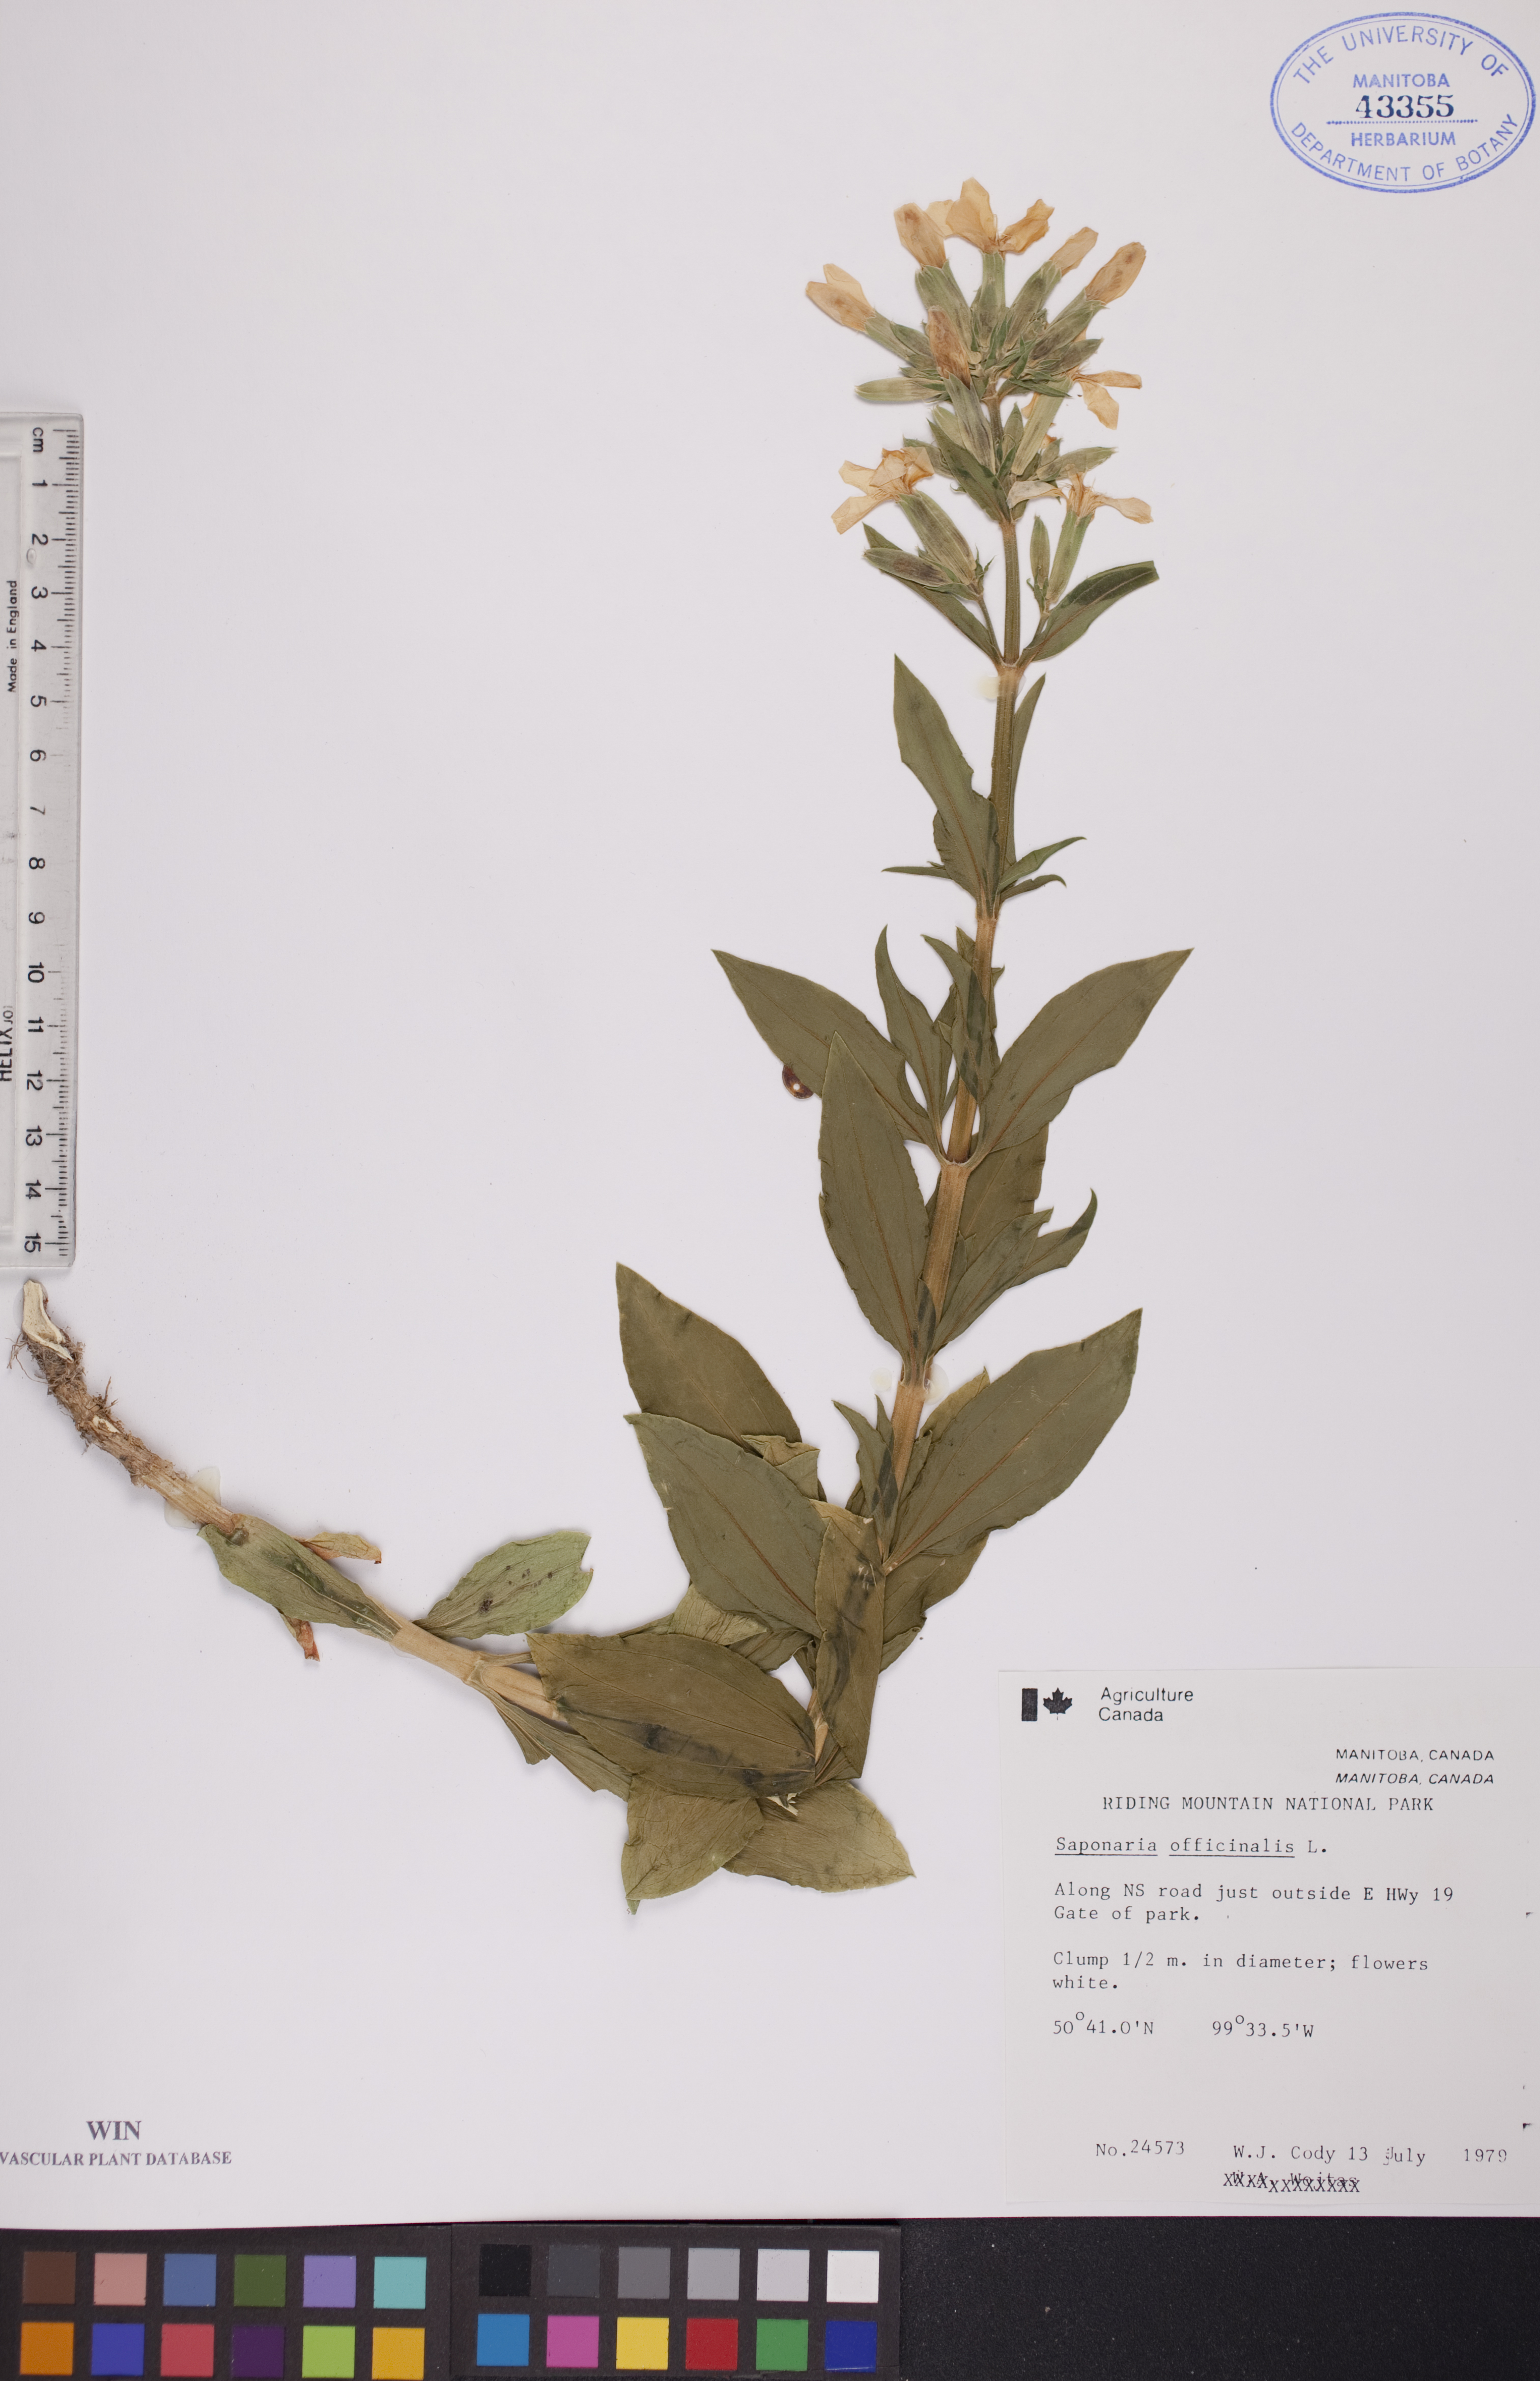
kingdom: Plantae
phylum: Tracheophyta
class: Magnoliopsida
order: Caryophyllales
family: Caryophyllaceae
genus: Saponaria
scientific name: Saponaria officinalis
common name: Soapwort
